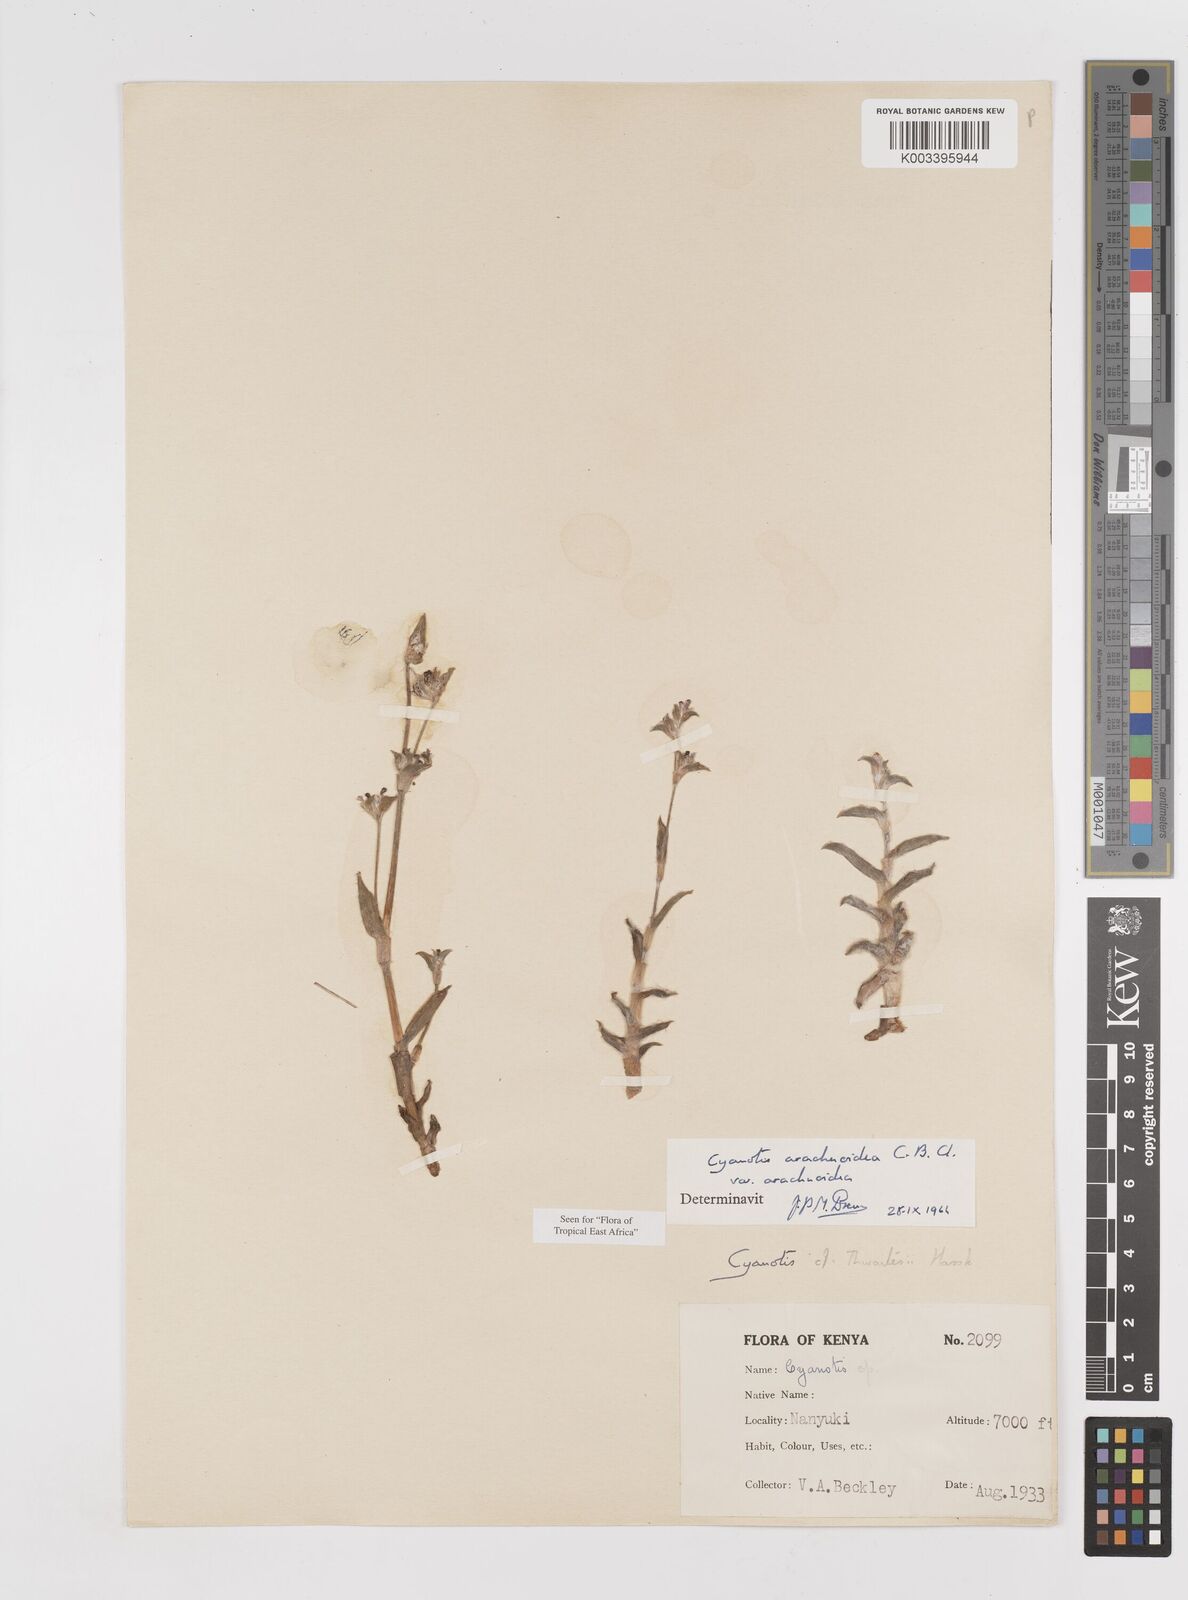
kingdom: Plantae
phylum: Tracheophyta
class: Liliopsida
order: Commelinales
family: Commelinaceae
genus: Cyanotis
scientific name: Cyanotis arachnoidea
